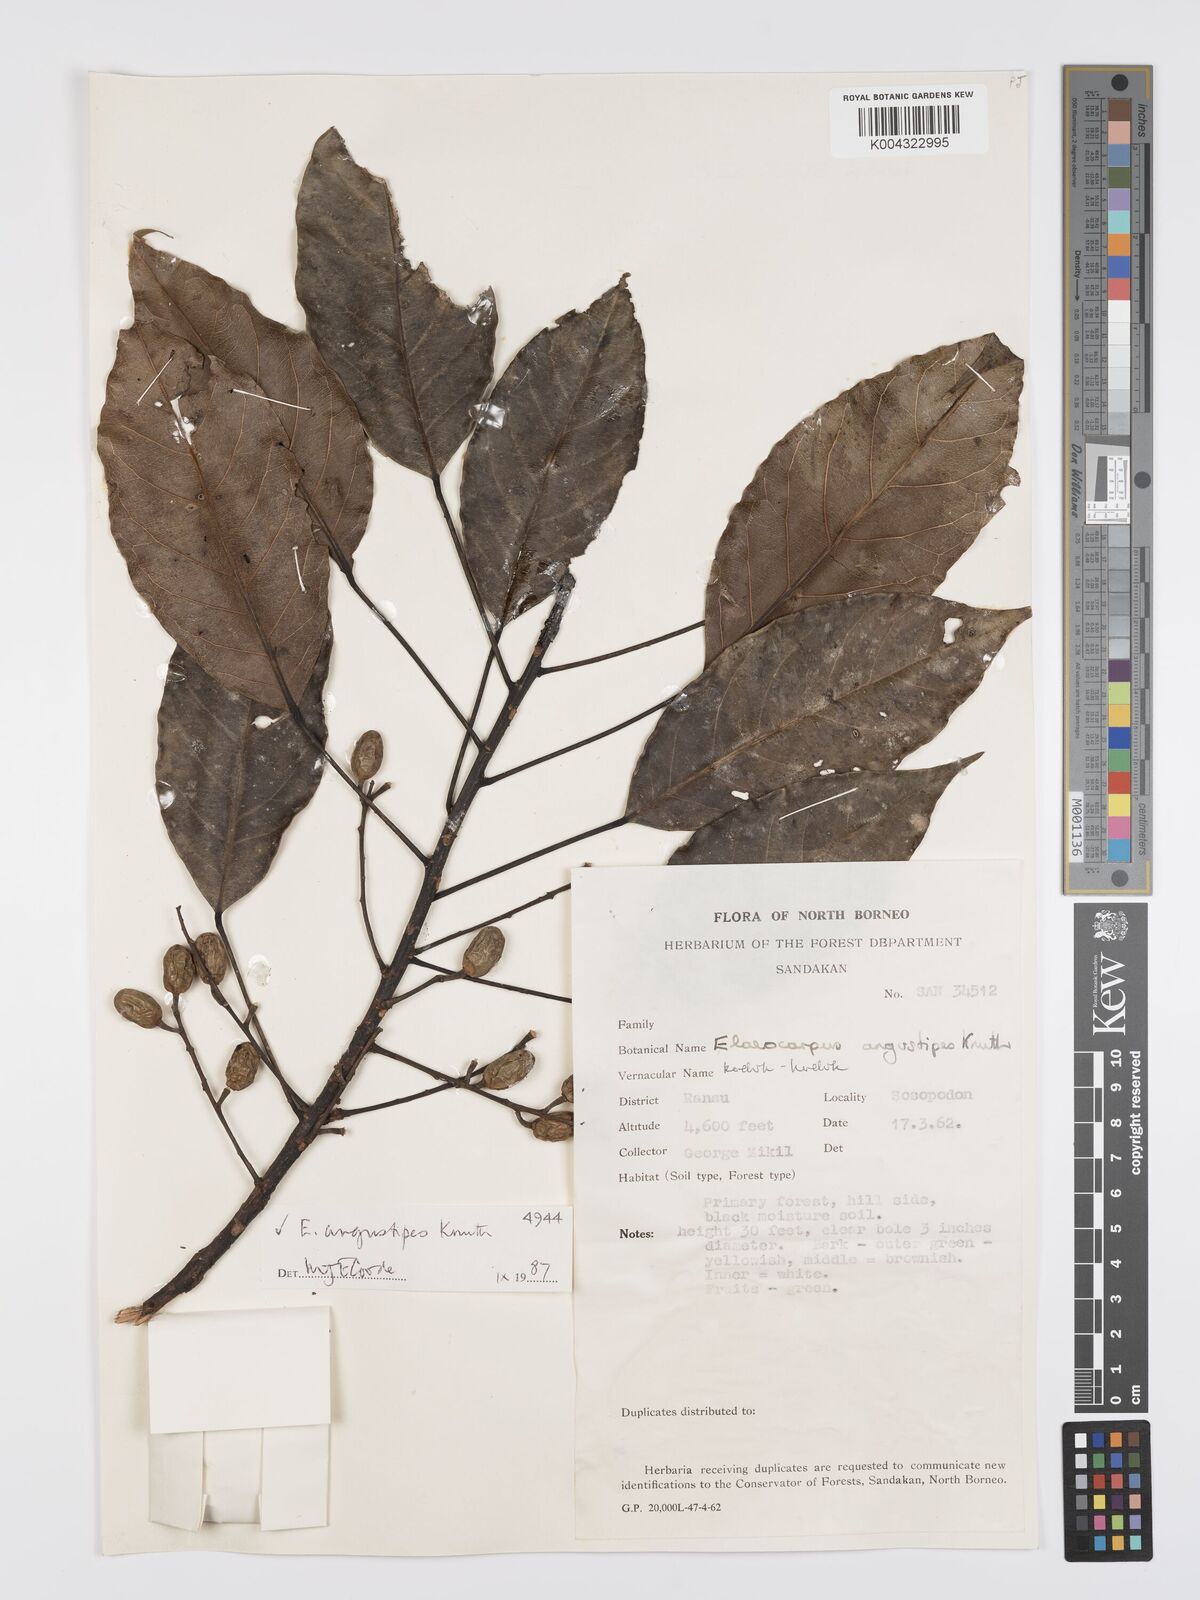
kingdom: Plantae
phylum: Tracheophyta
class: Magnoliopsida
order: Oxalidales
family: Elaeocarpaceae
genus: Elaeocarpus
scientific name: Elaeocarpus angustipes
